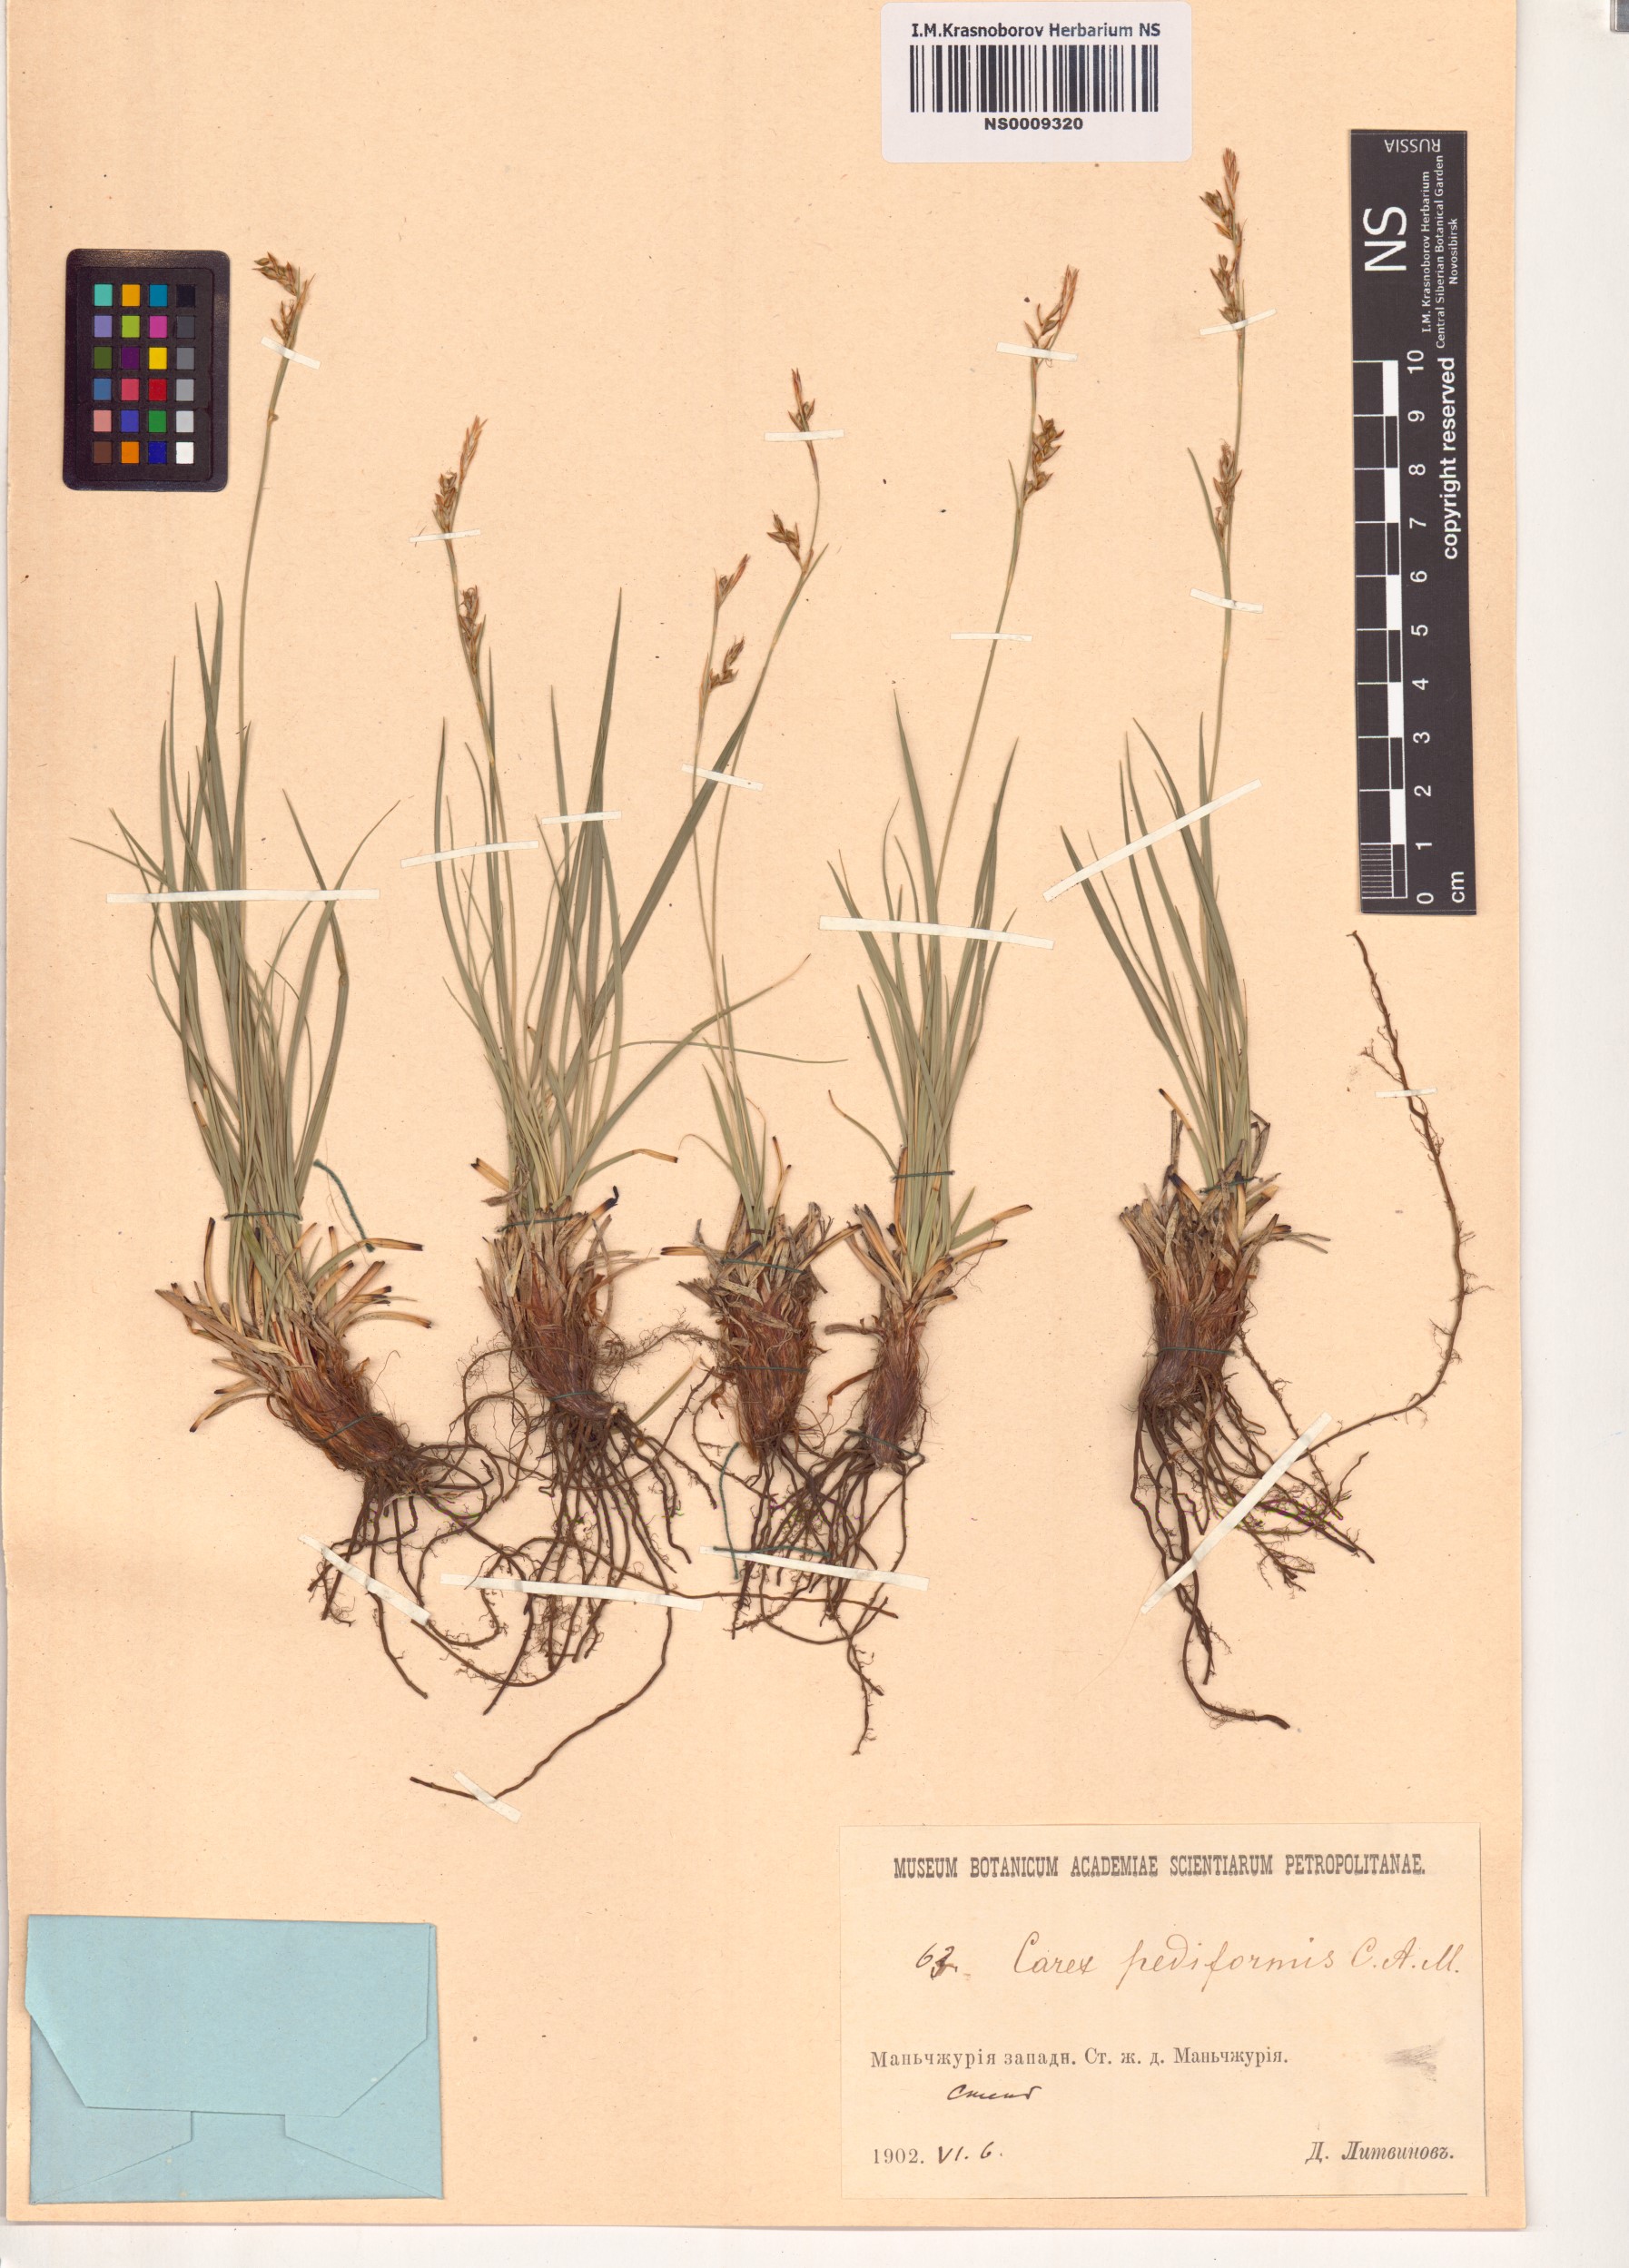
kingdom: Plantae
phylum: Tracheophyta
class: Liliopsida
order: Poales
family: Cyperaceae
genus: Carex
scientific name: Carex pediformis
